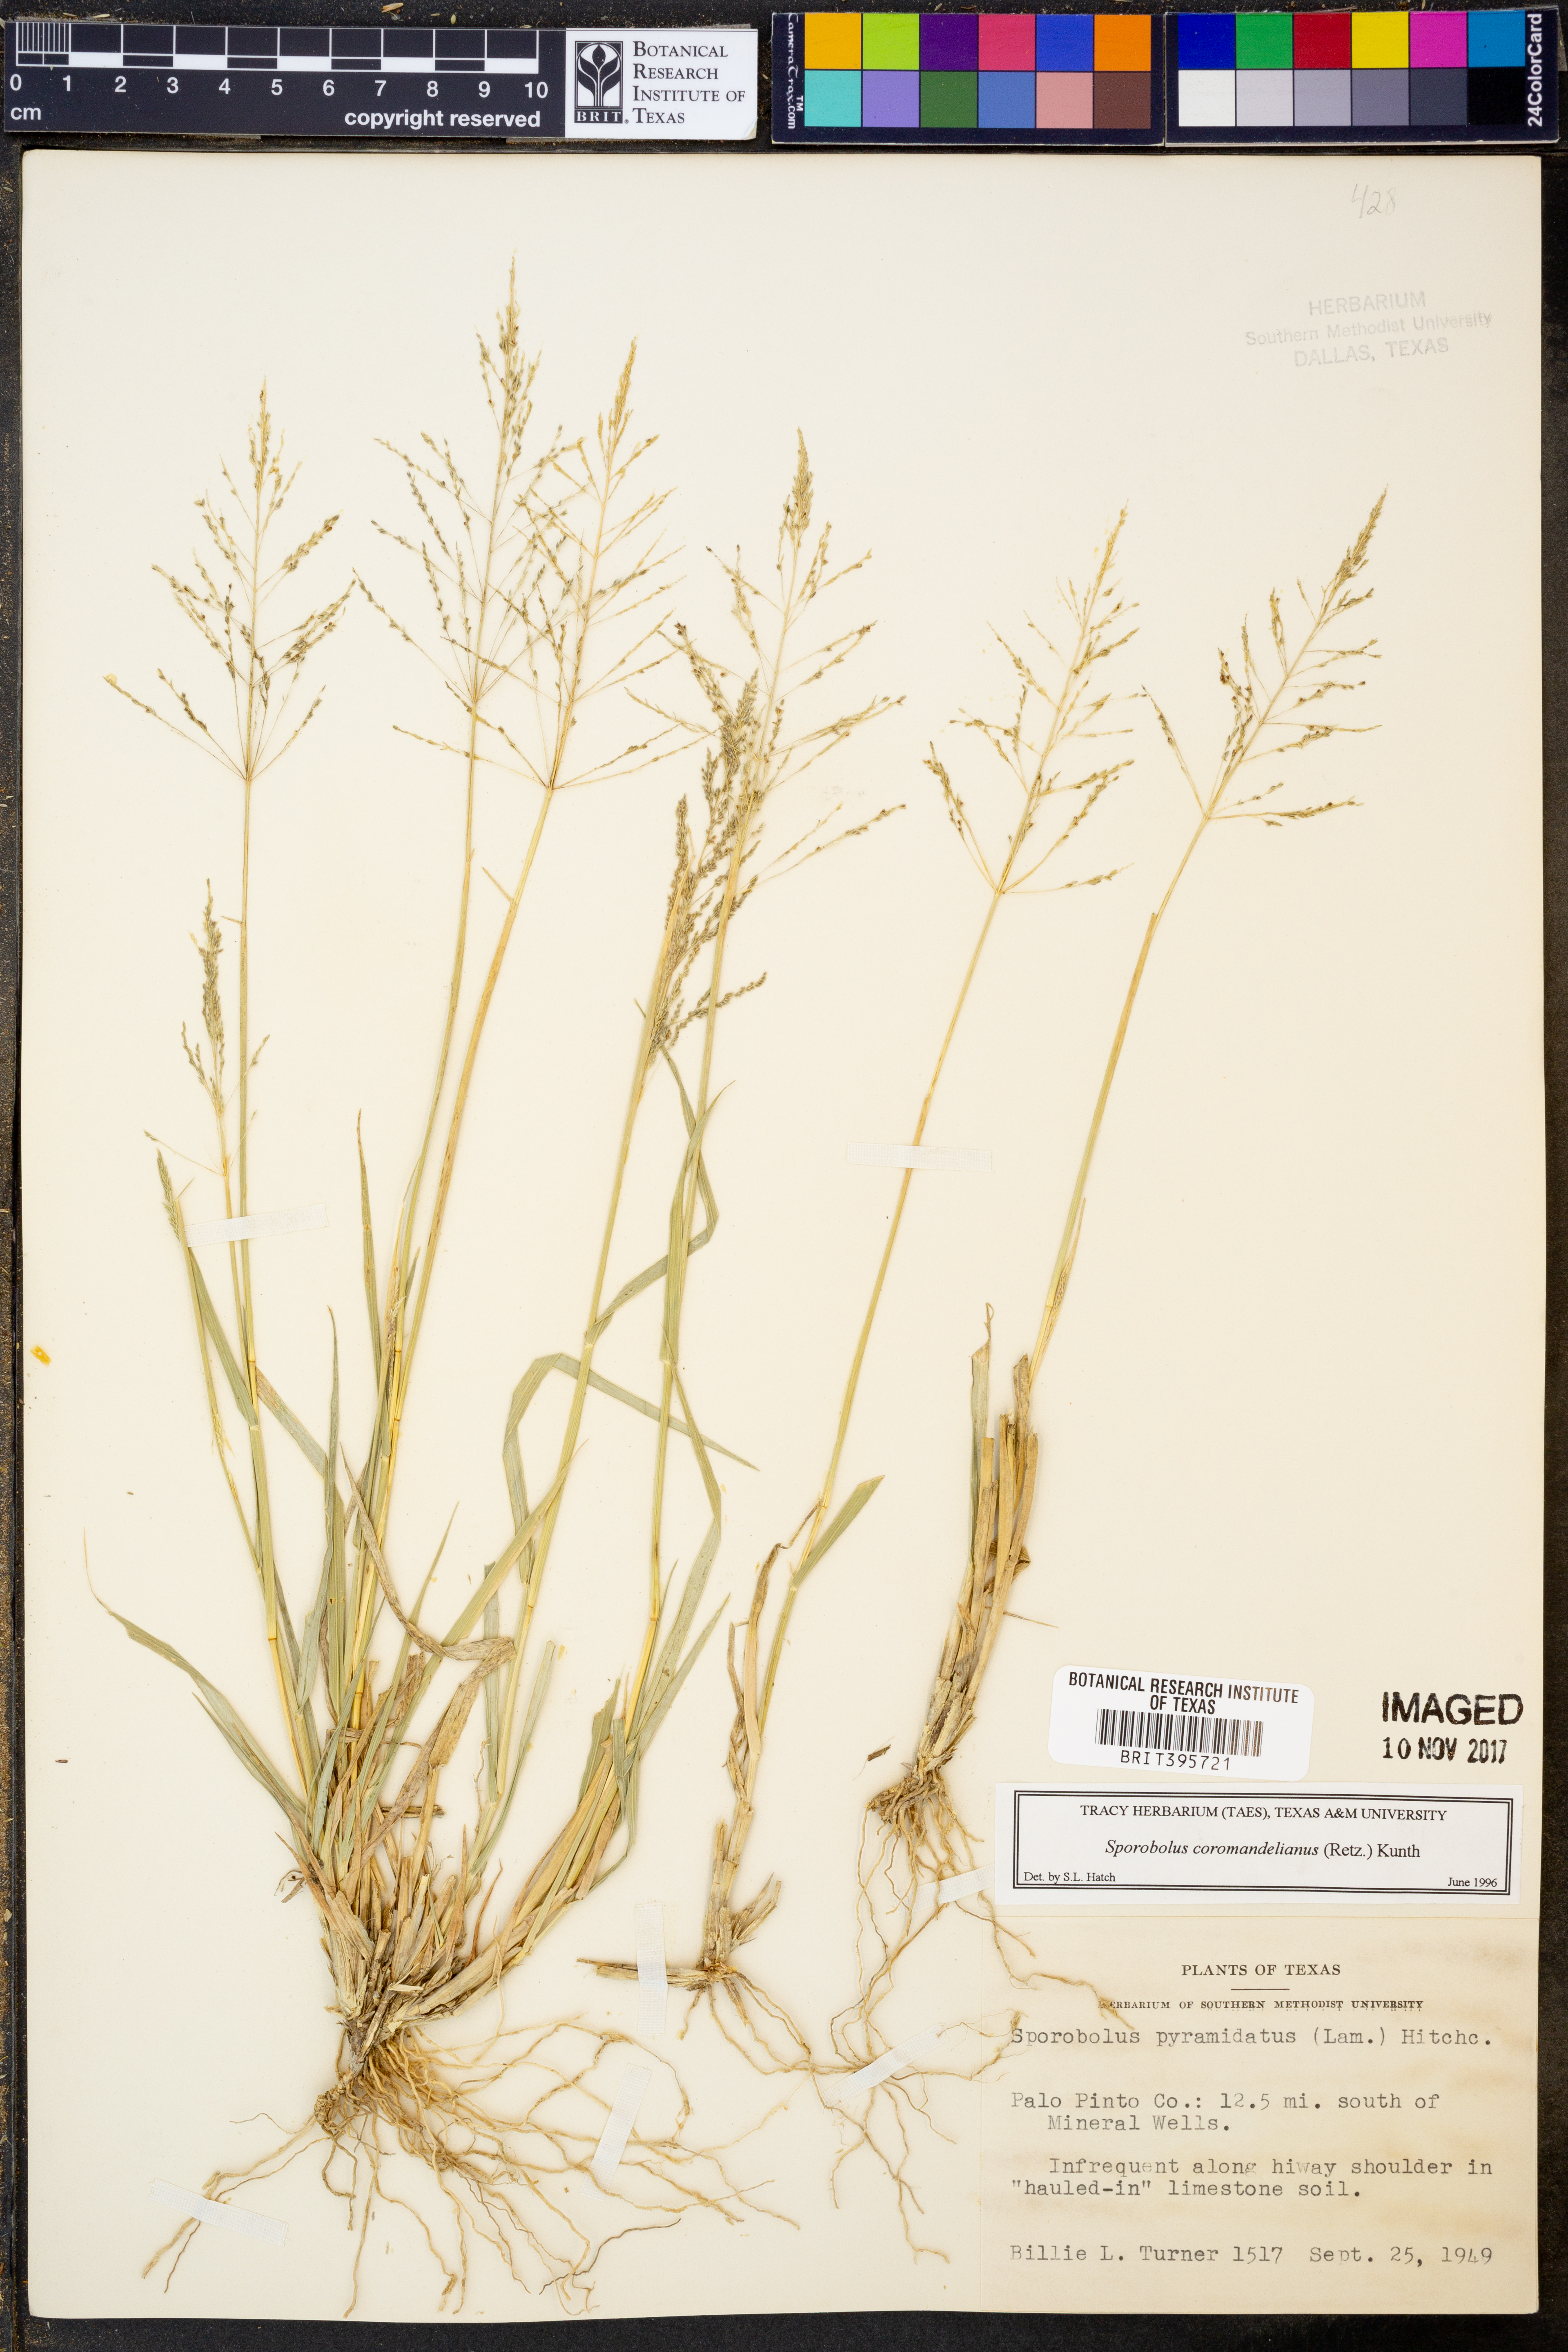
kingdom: Plantae
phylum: Tracheophyta
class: Liliopsida
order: Poales
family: Poaceae
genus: Sporobolus
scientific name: Sporobolus coromandelianus
